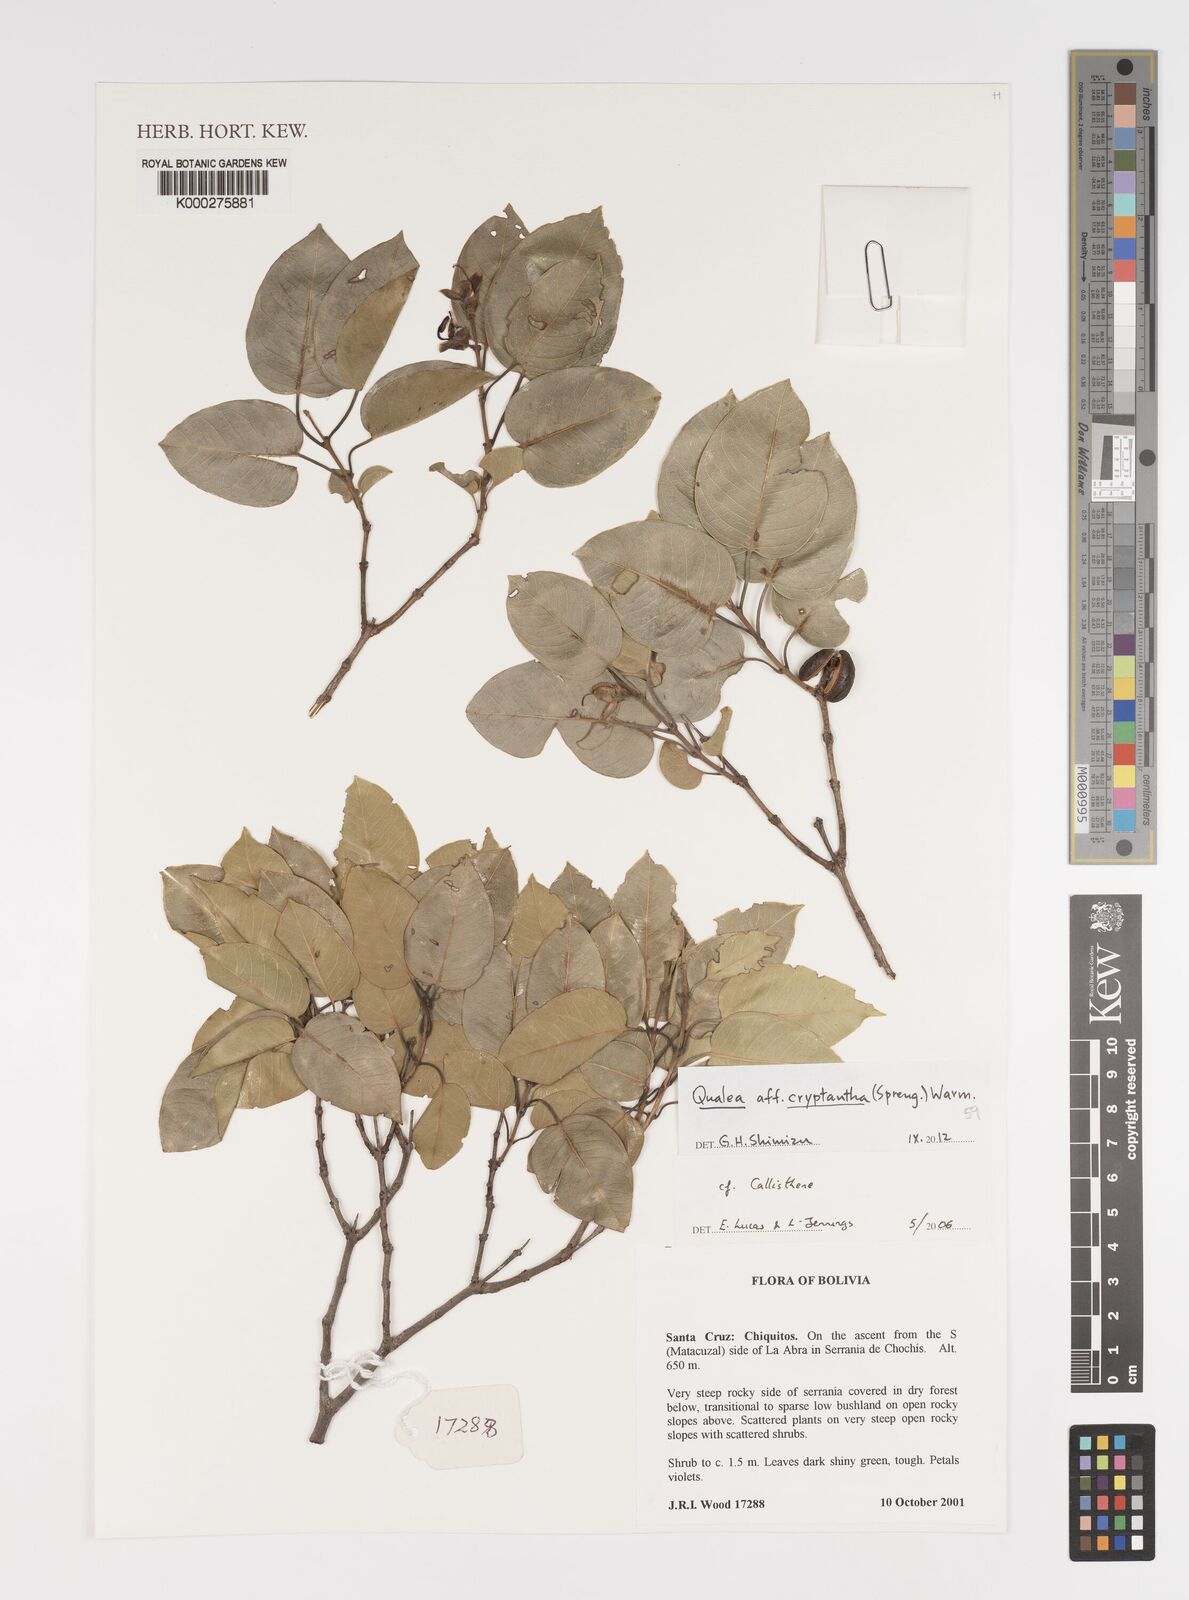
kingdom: Plantae
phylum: Tracheophyta
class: Magnoliopsida
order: Myrtales
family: Vochysiaceae
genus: Callisthene
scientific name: Callisthene
